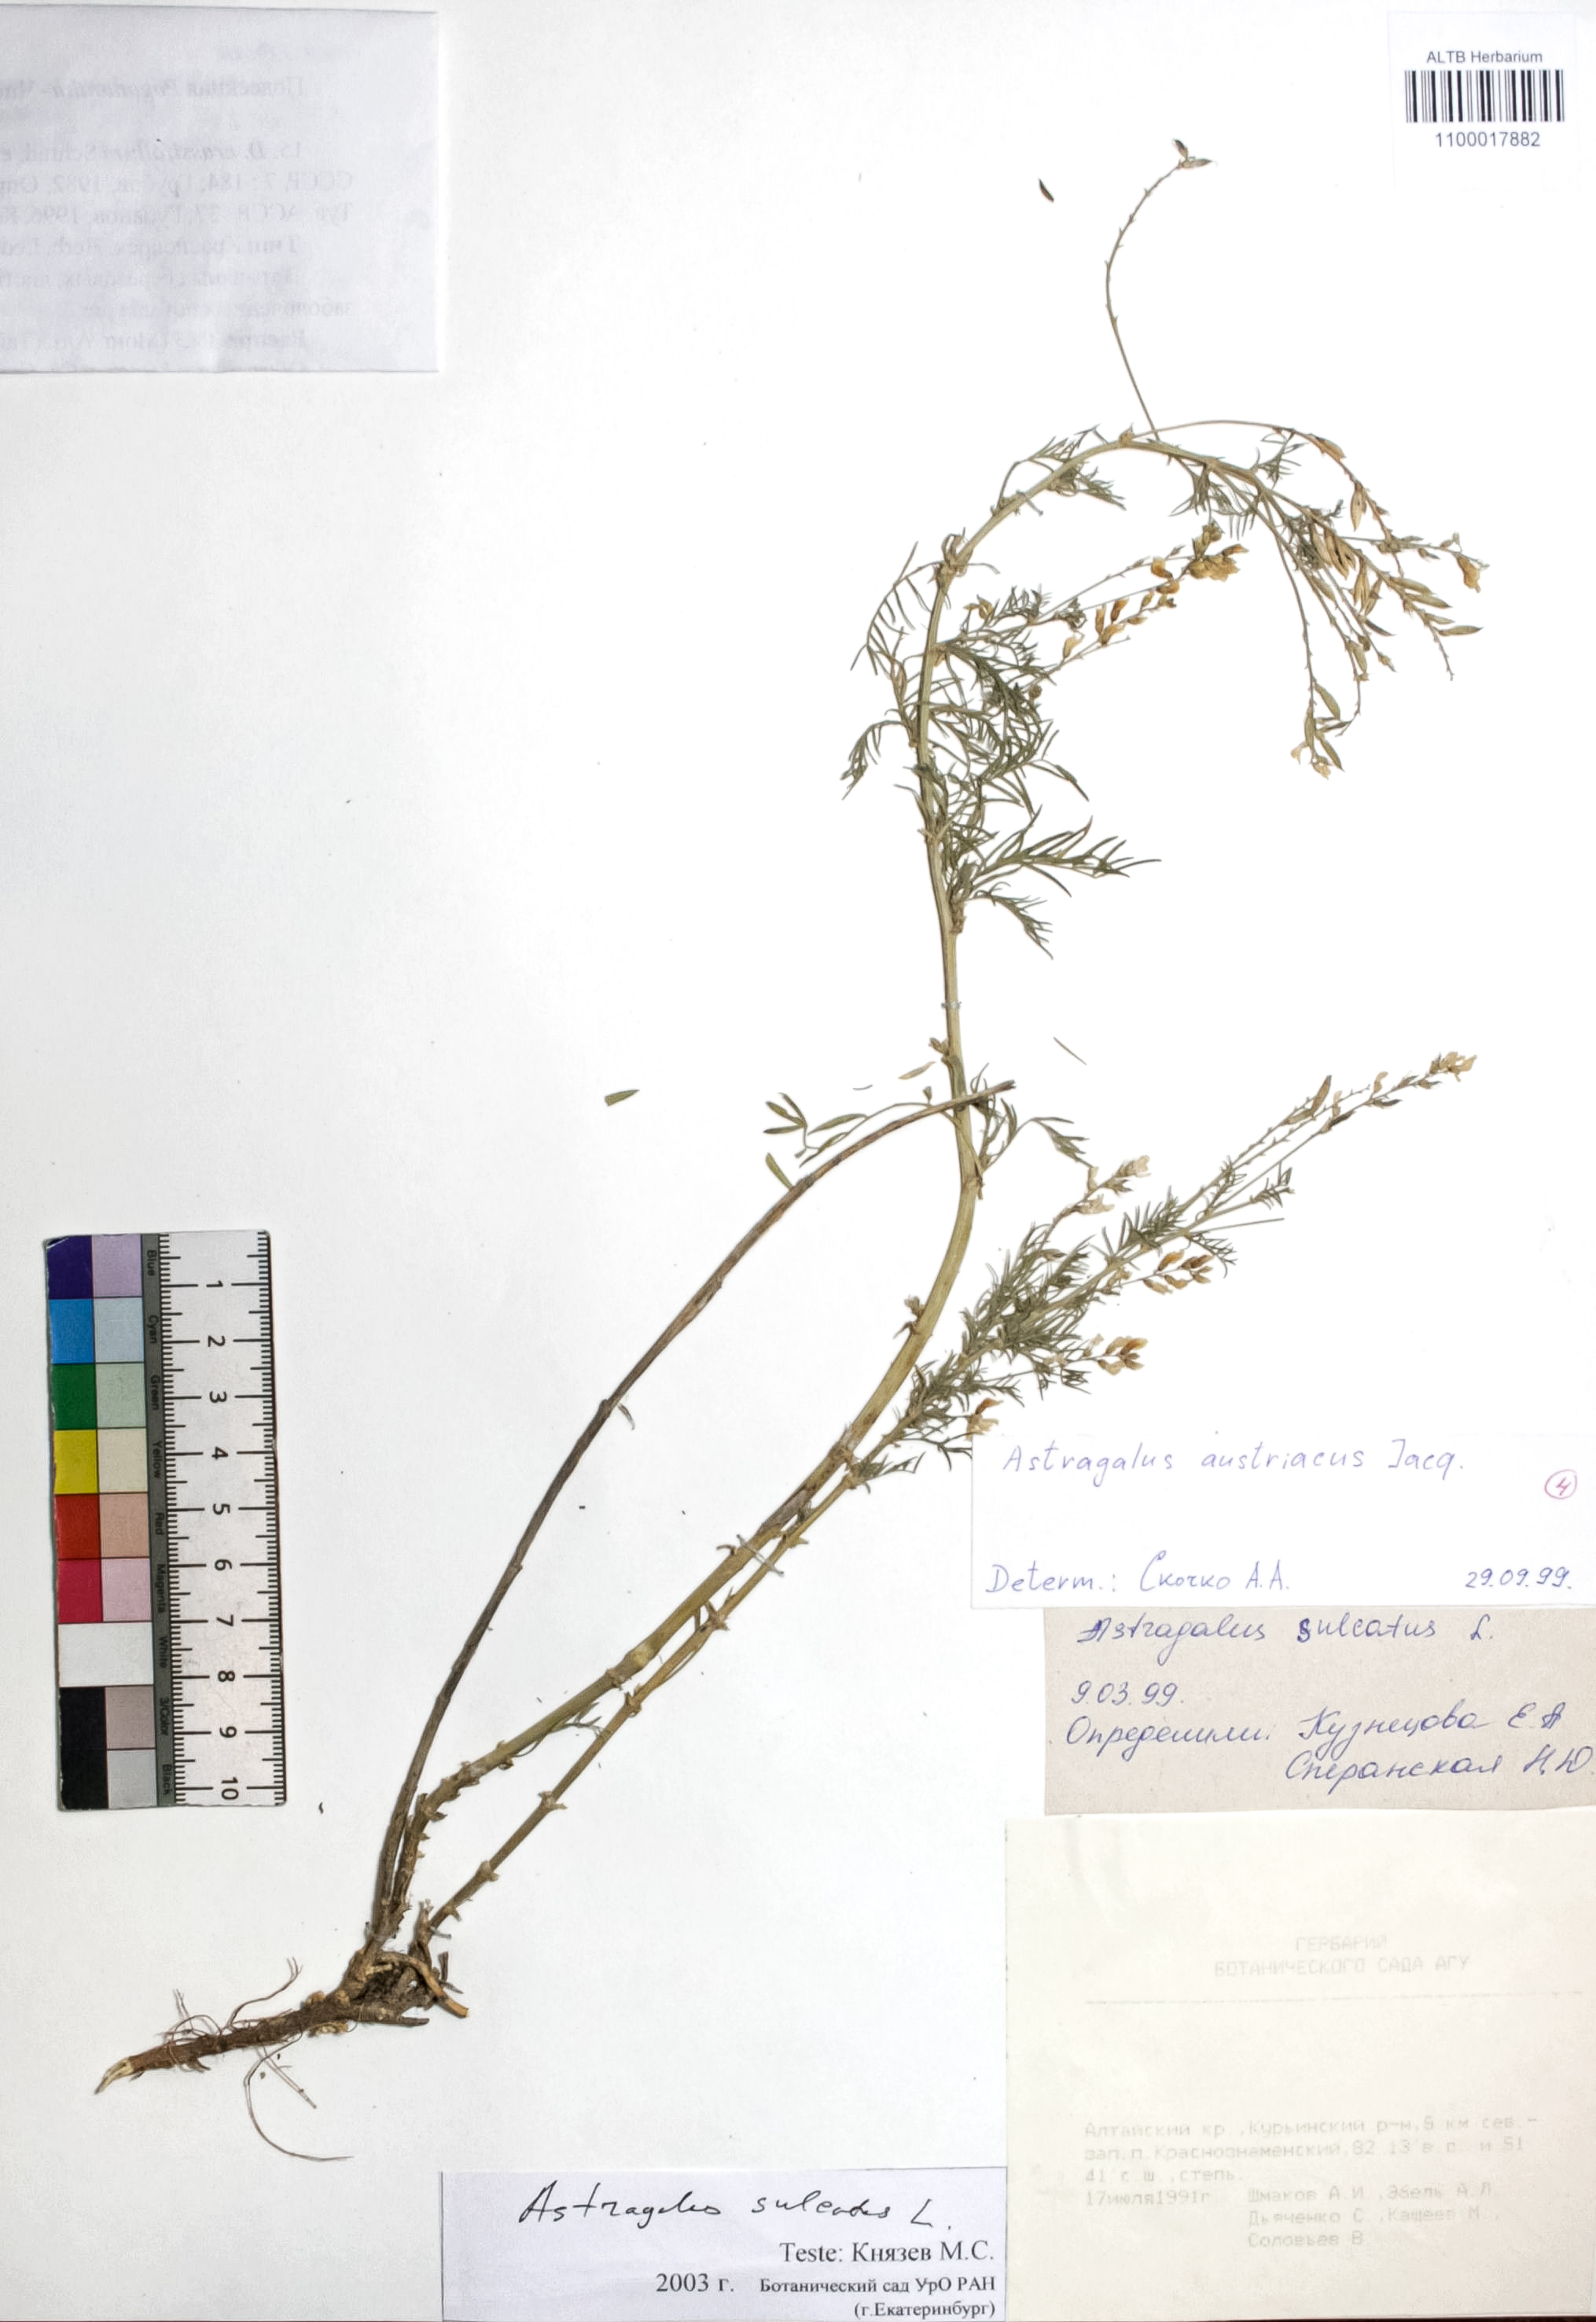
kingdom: Plantae
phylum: Tracheophyta
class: Magnoliopsida
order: Fabales
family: Fabaceae
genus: Astragalus
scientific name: Astragalus sulcatus
